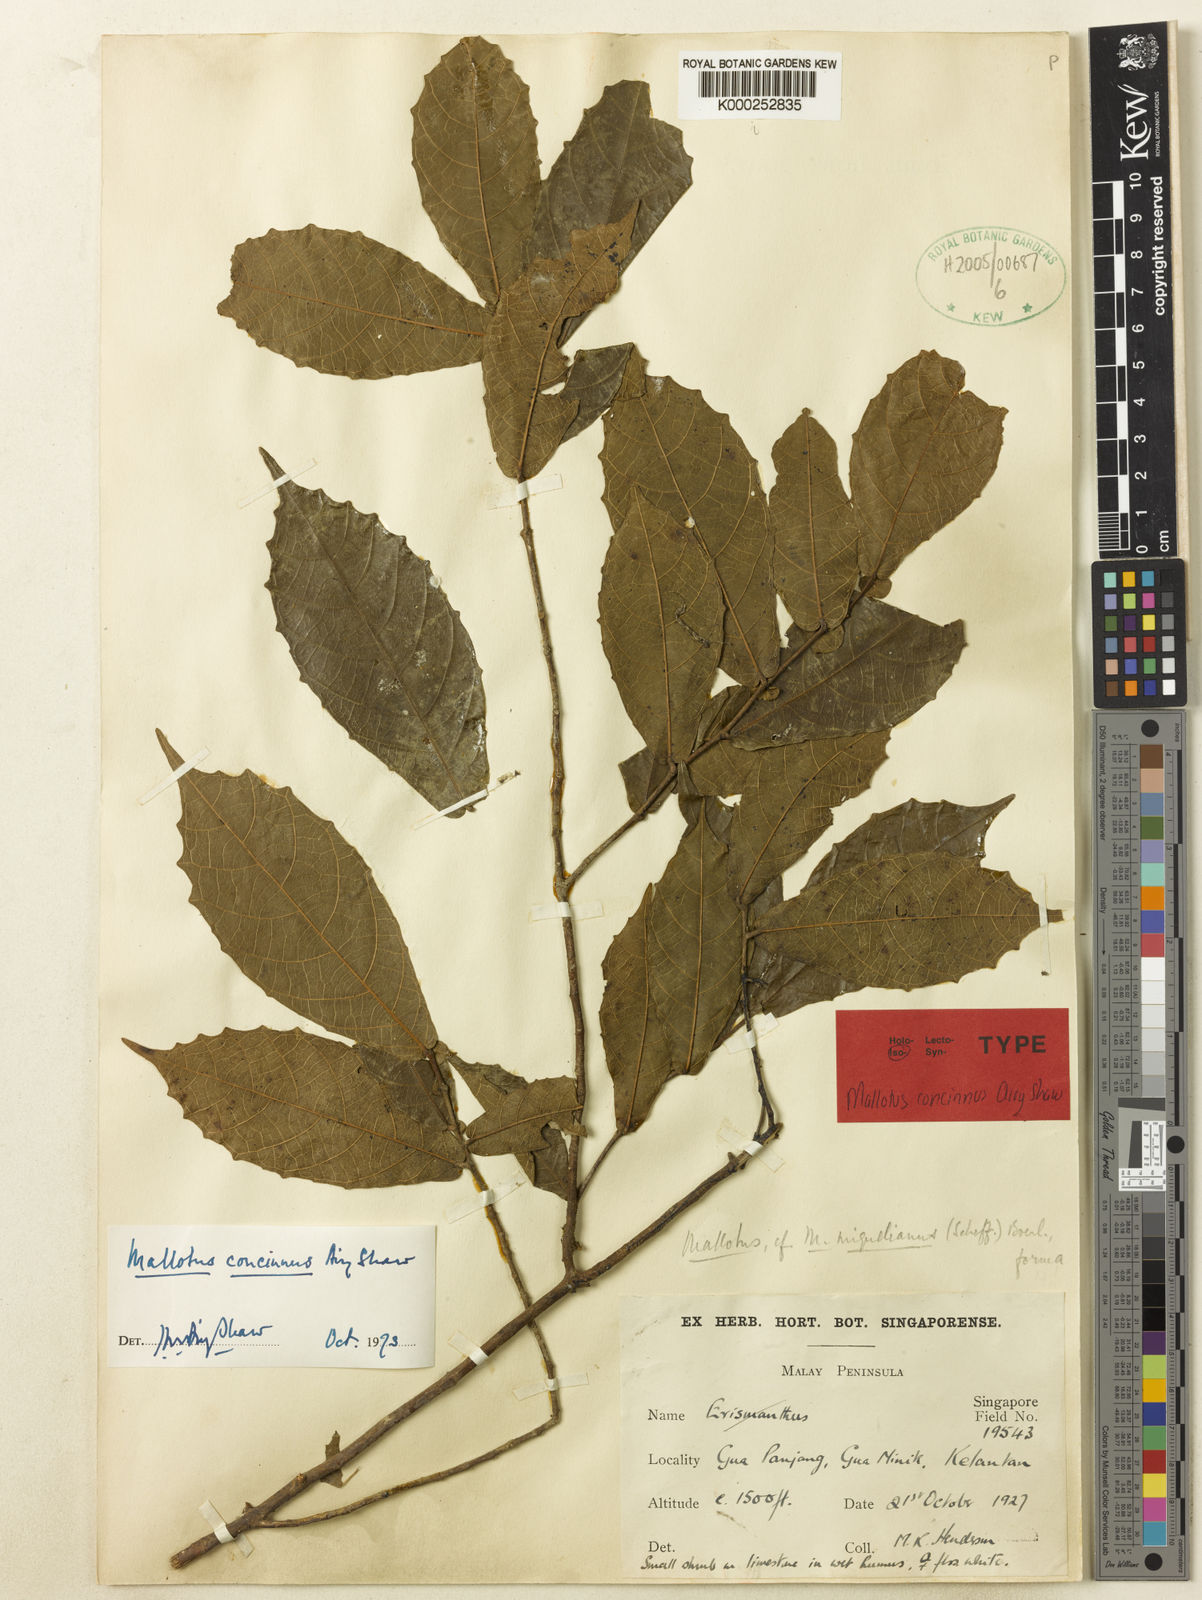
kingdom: Plantae
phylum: Tracheophyta
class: Magnoliopsida
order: Malpighiales
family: Euphorbiaceae
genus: Mallotus
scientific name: Mallotus concinnus
